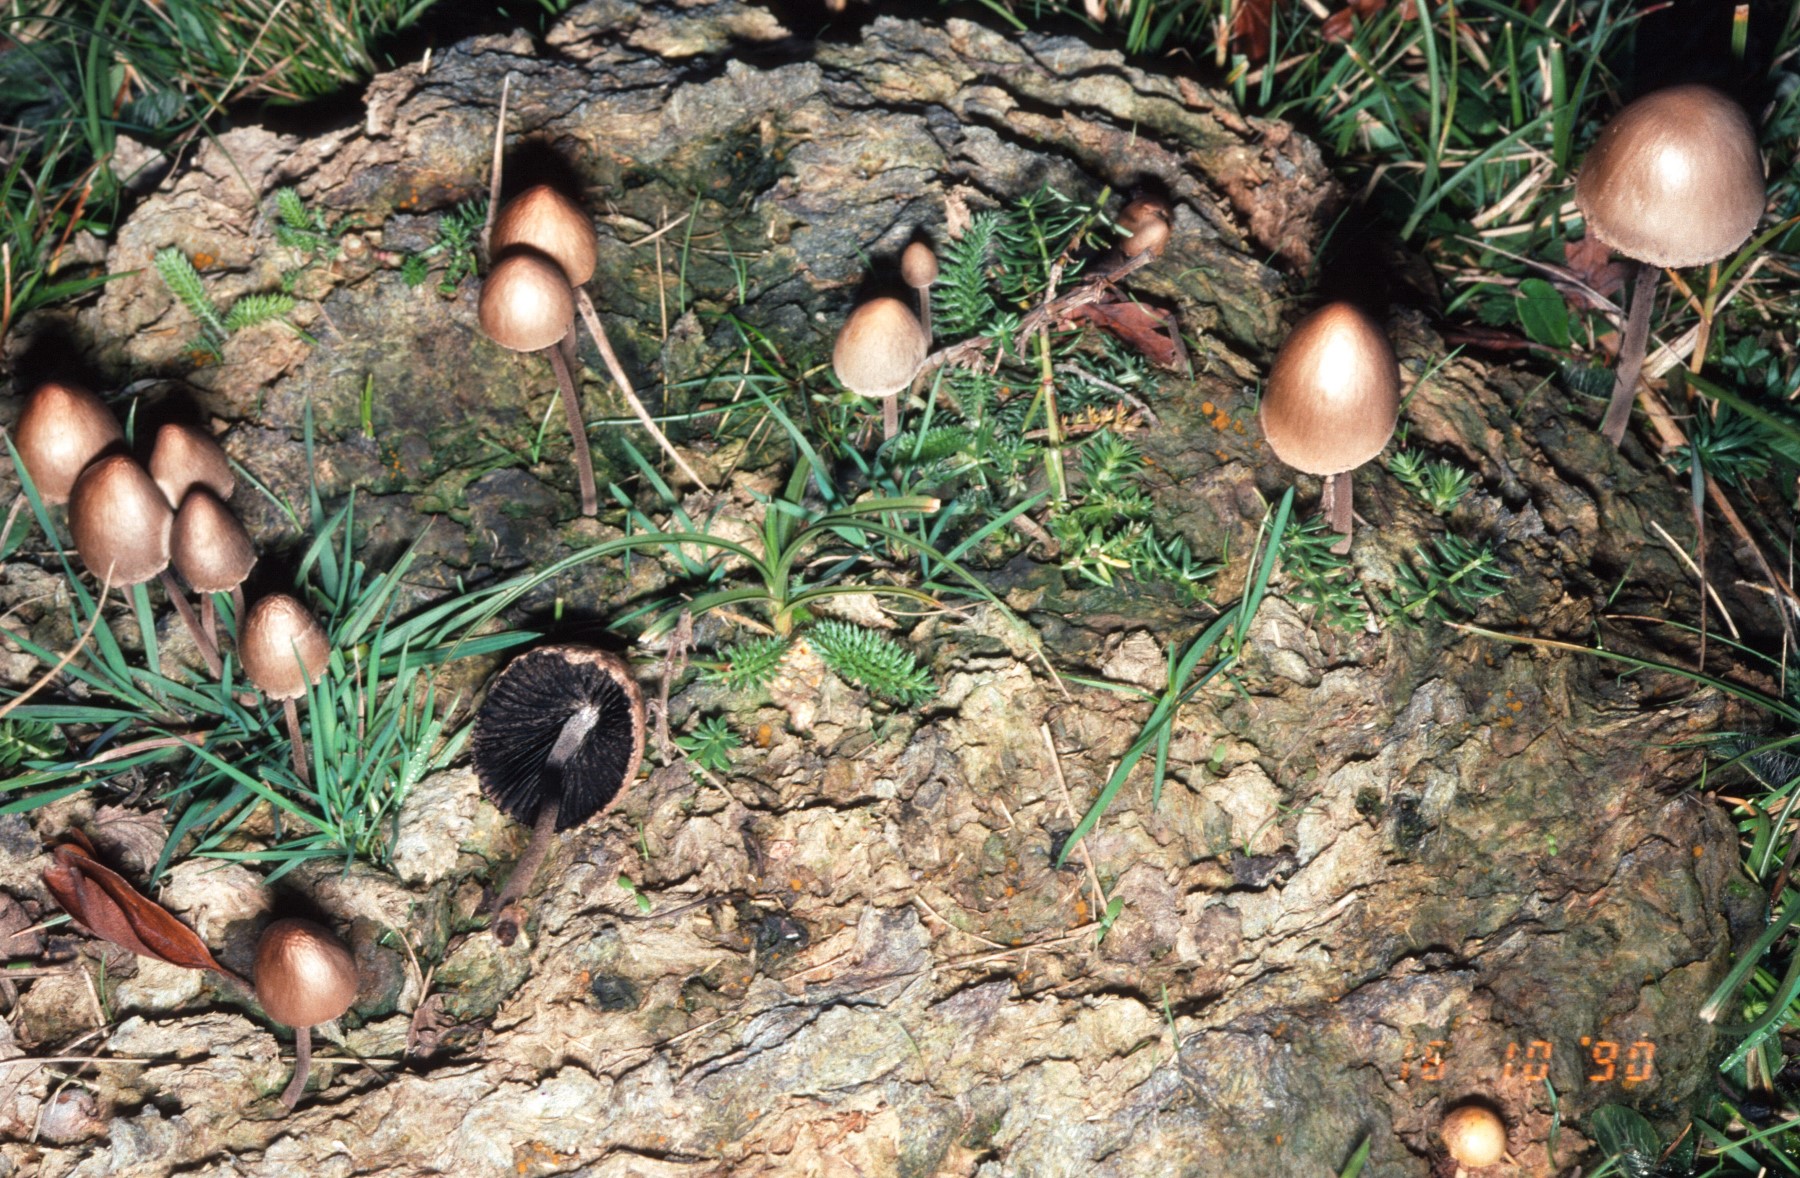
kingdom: Fungi
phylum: Basidiomycota
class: Agaricomycetes
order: Agaricales
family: Bolbitiaceae
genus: Panaeolus
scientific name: Panaeolus papilionaceus
